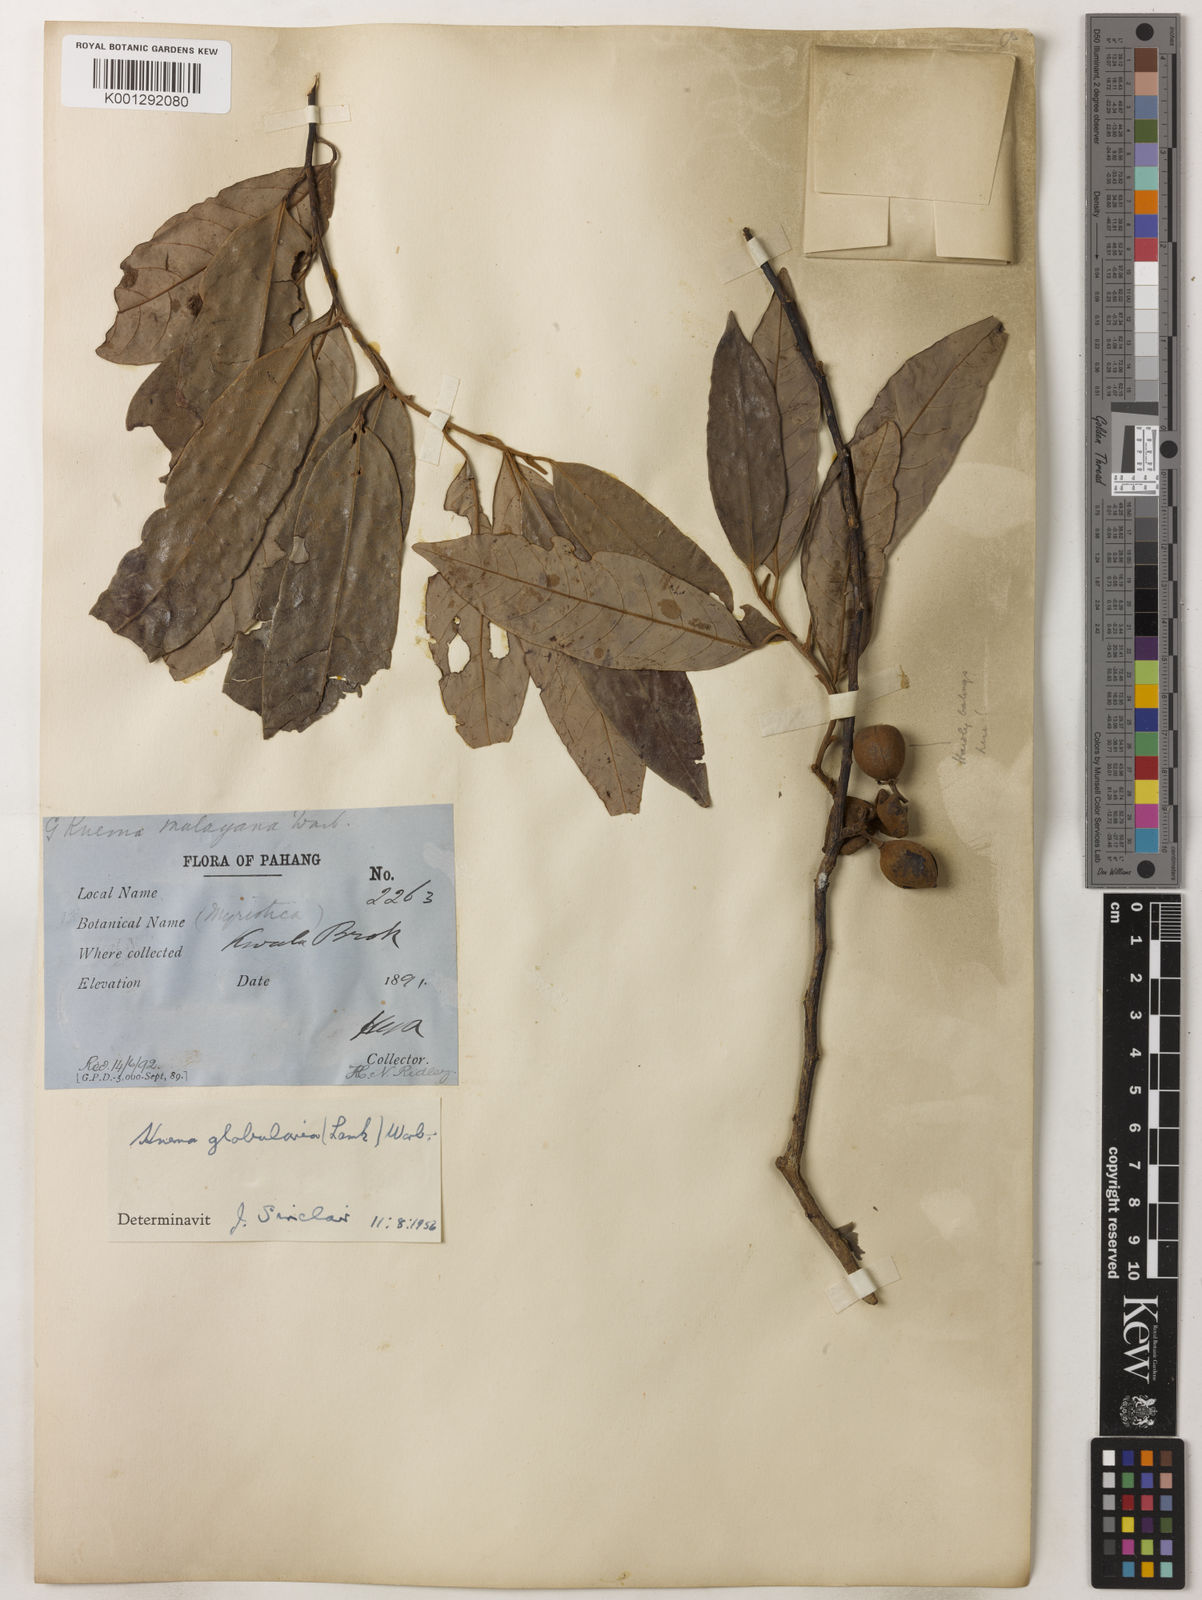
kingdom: Plantae
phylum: Tracheophyta
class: Magnoliopsida
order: Magnoliales
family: Myristicaceae
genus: Knema
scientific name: Knema globularia
